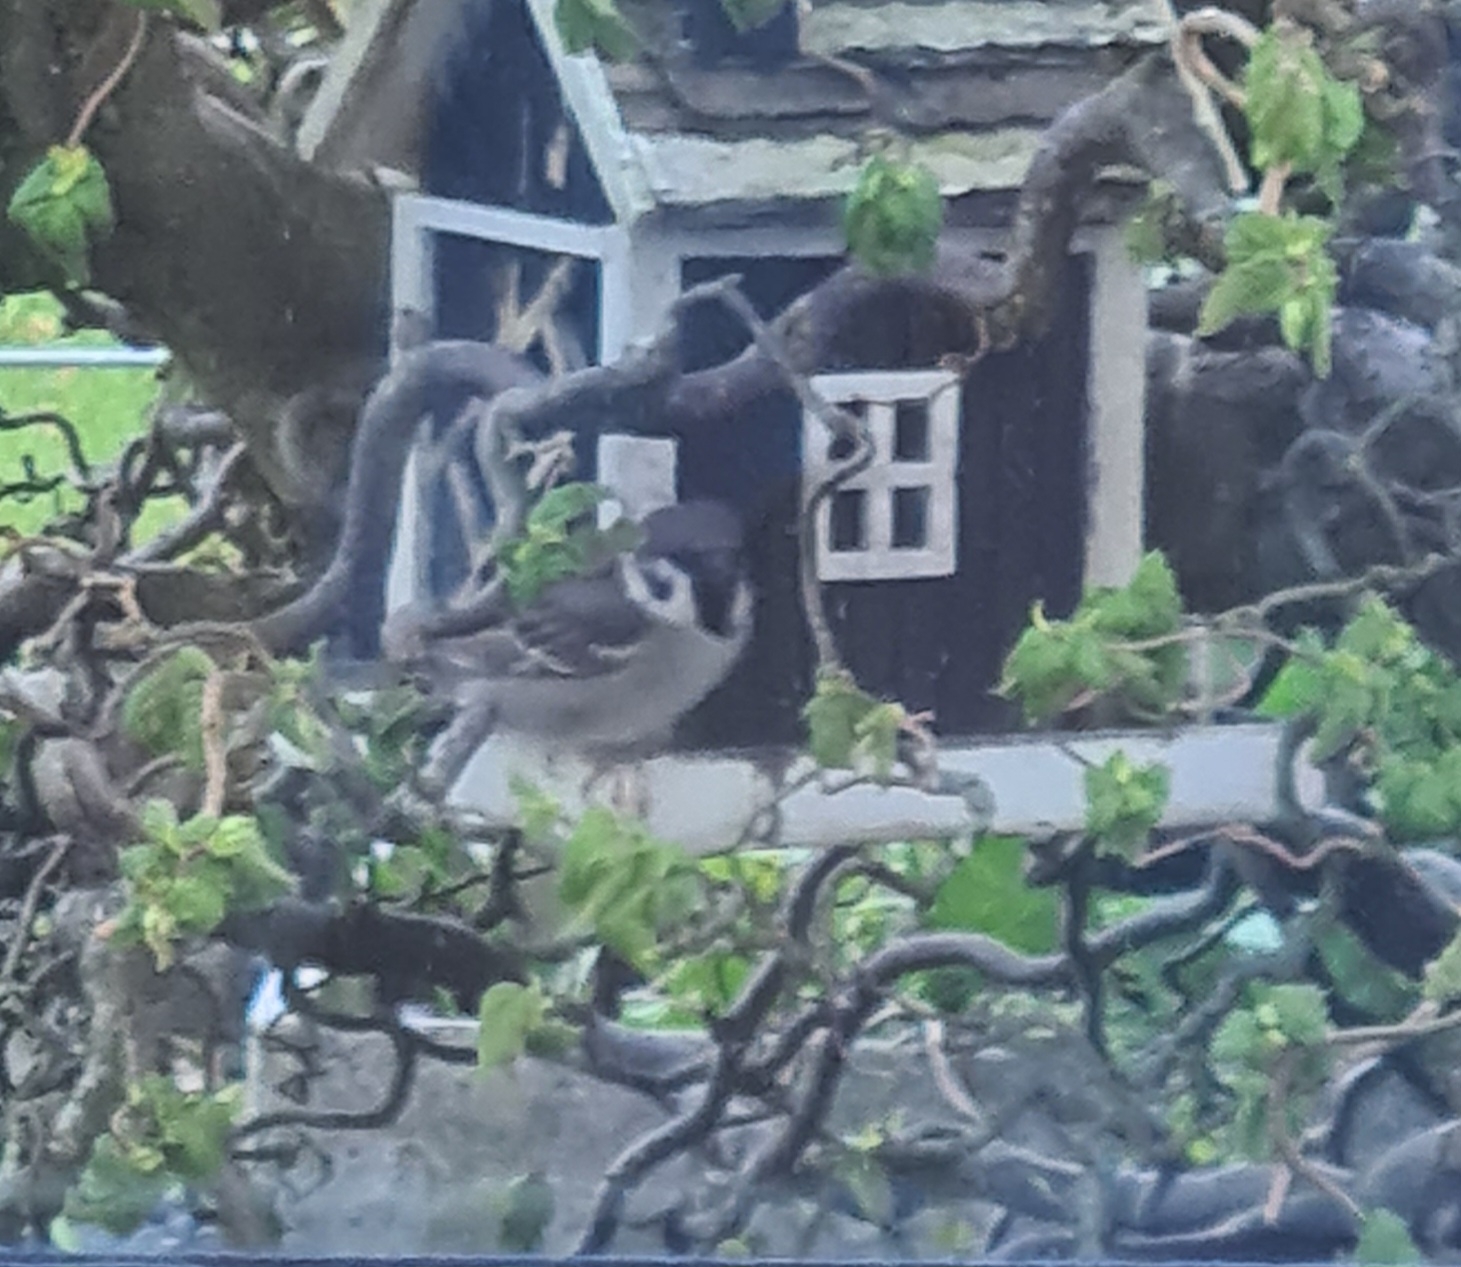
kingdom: Animalia
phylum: Chordata
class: Aves
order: Passeriformes
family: Passeridae
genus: Passer
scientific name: Passer montanus
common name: Skovspurv
